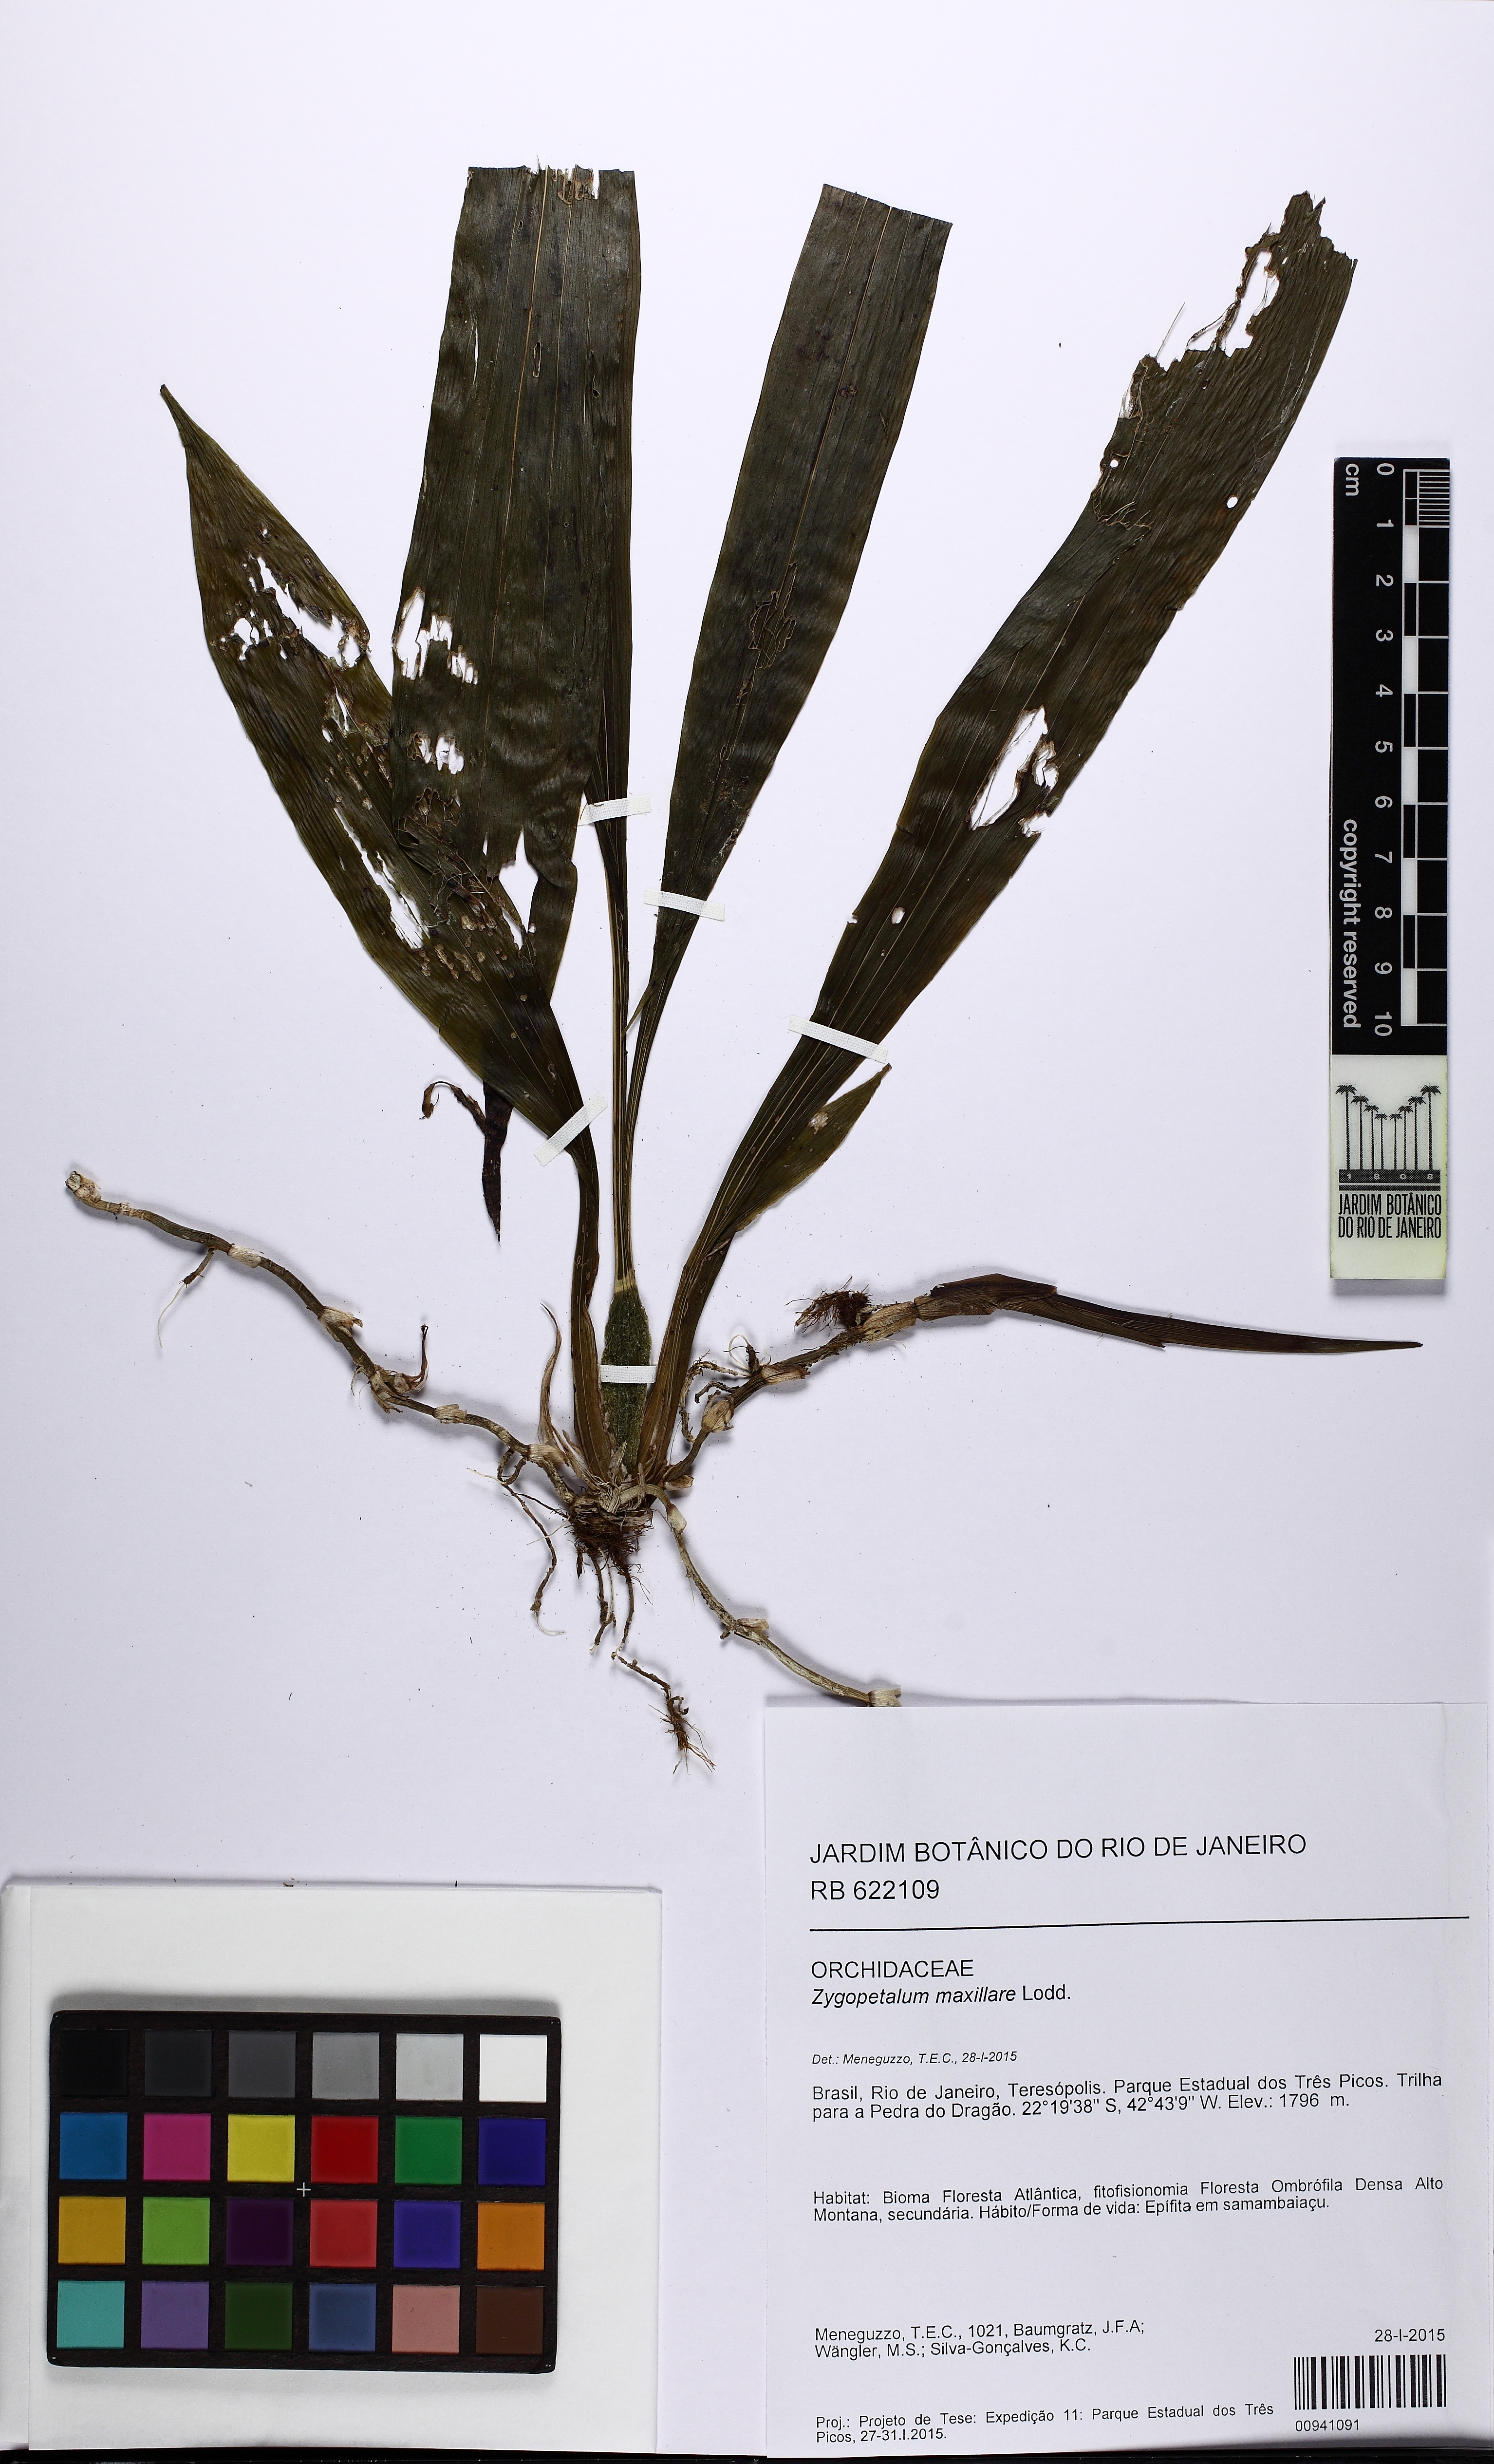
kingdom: Plantae
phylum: Tracheophyta
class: Liliopsida
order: Asparagales
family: Orchidaceae
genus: Zygopetalum
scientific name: Zygopetalum maxillare
